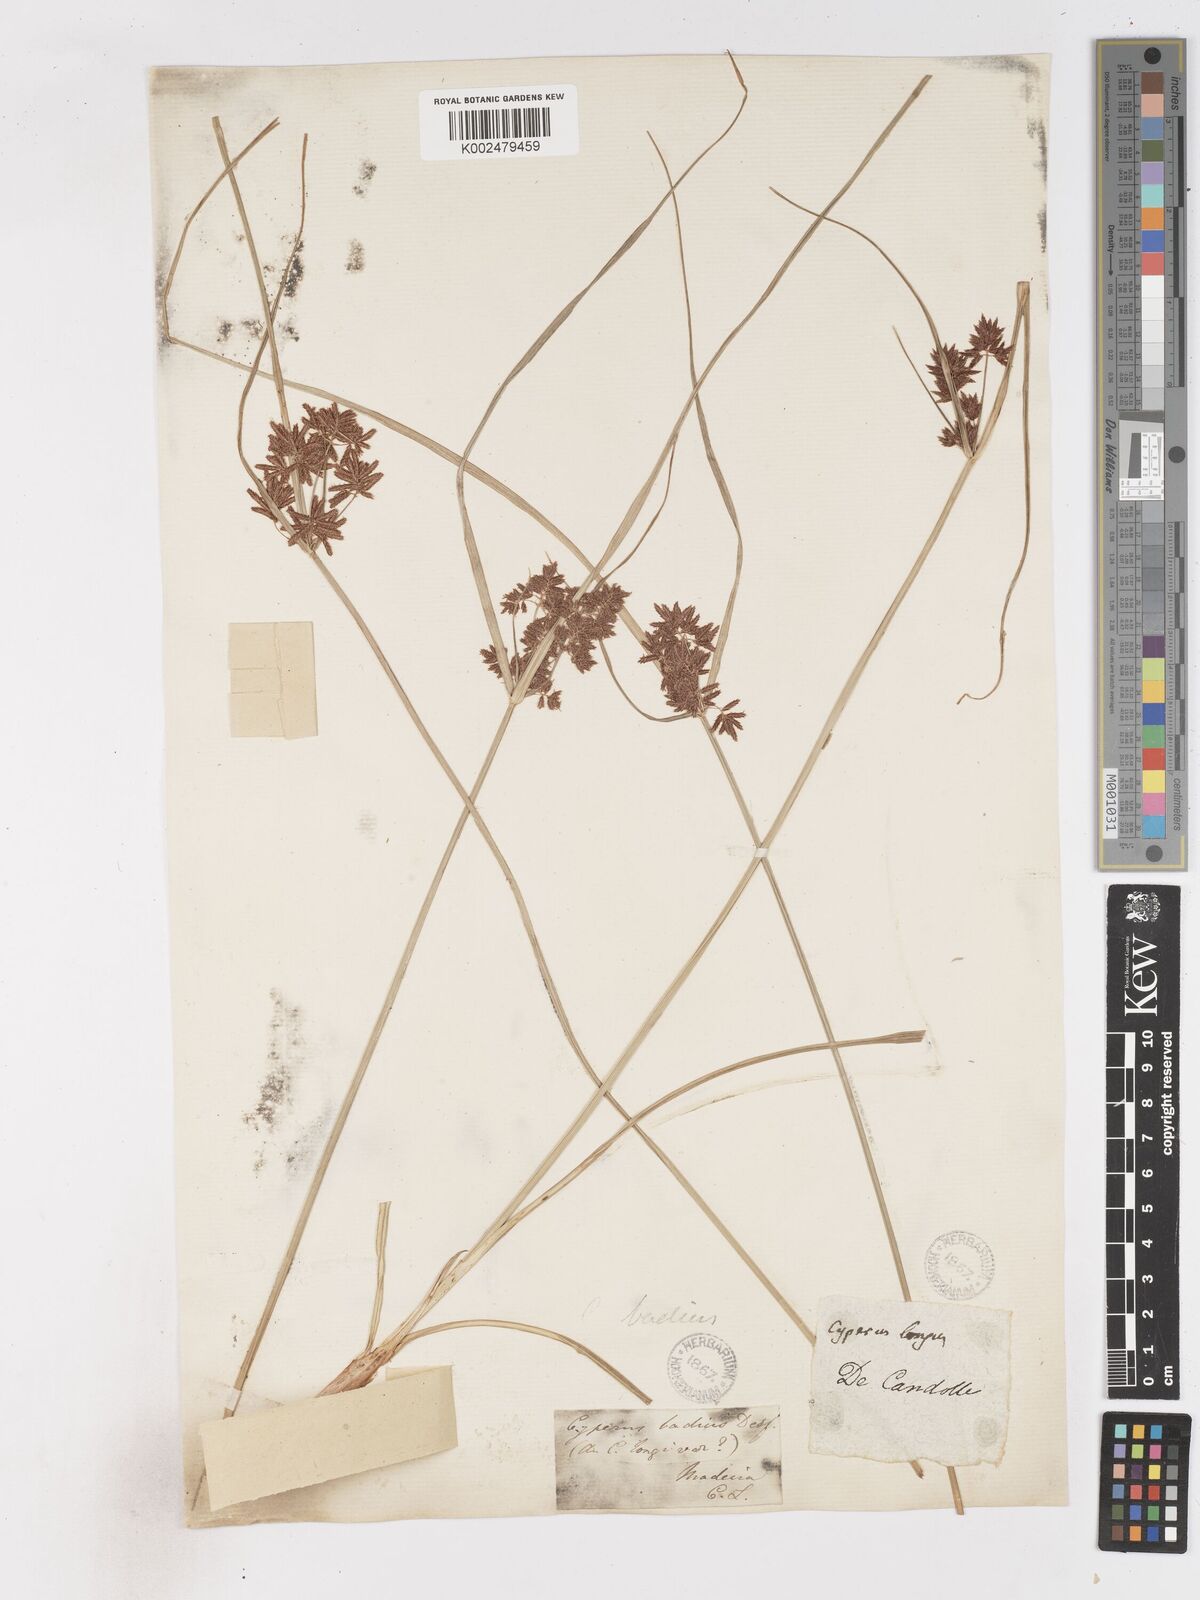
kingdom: Plantae
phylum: Tracheophyta
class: Liliopsida
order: Poales
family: Cyperaceae
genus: Cyperus
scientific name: Cyperus longus
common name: Galingale
